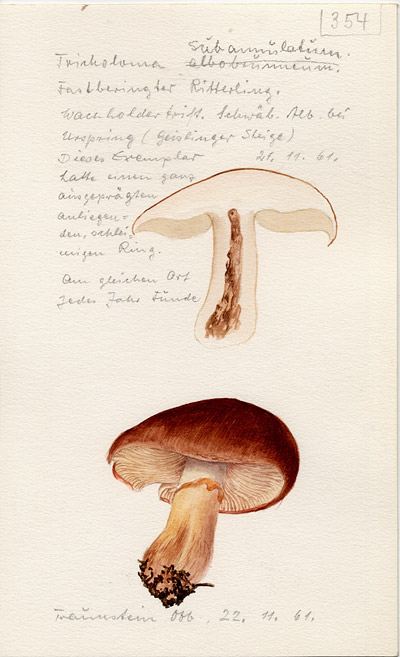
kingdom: Fungi
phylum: Basidiomycota
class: Agaricomycetes
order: Agaricales
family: Tricholomataceae
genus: Tricholoma
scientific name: Tricholoma fracticum
